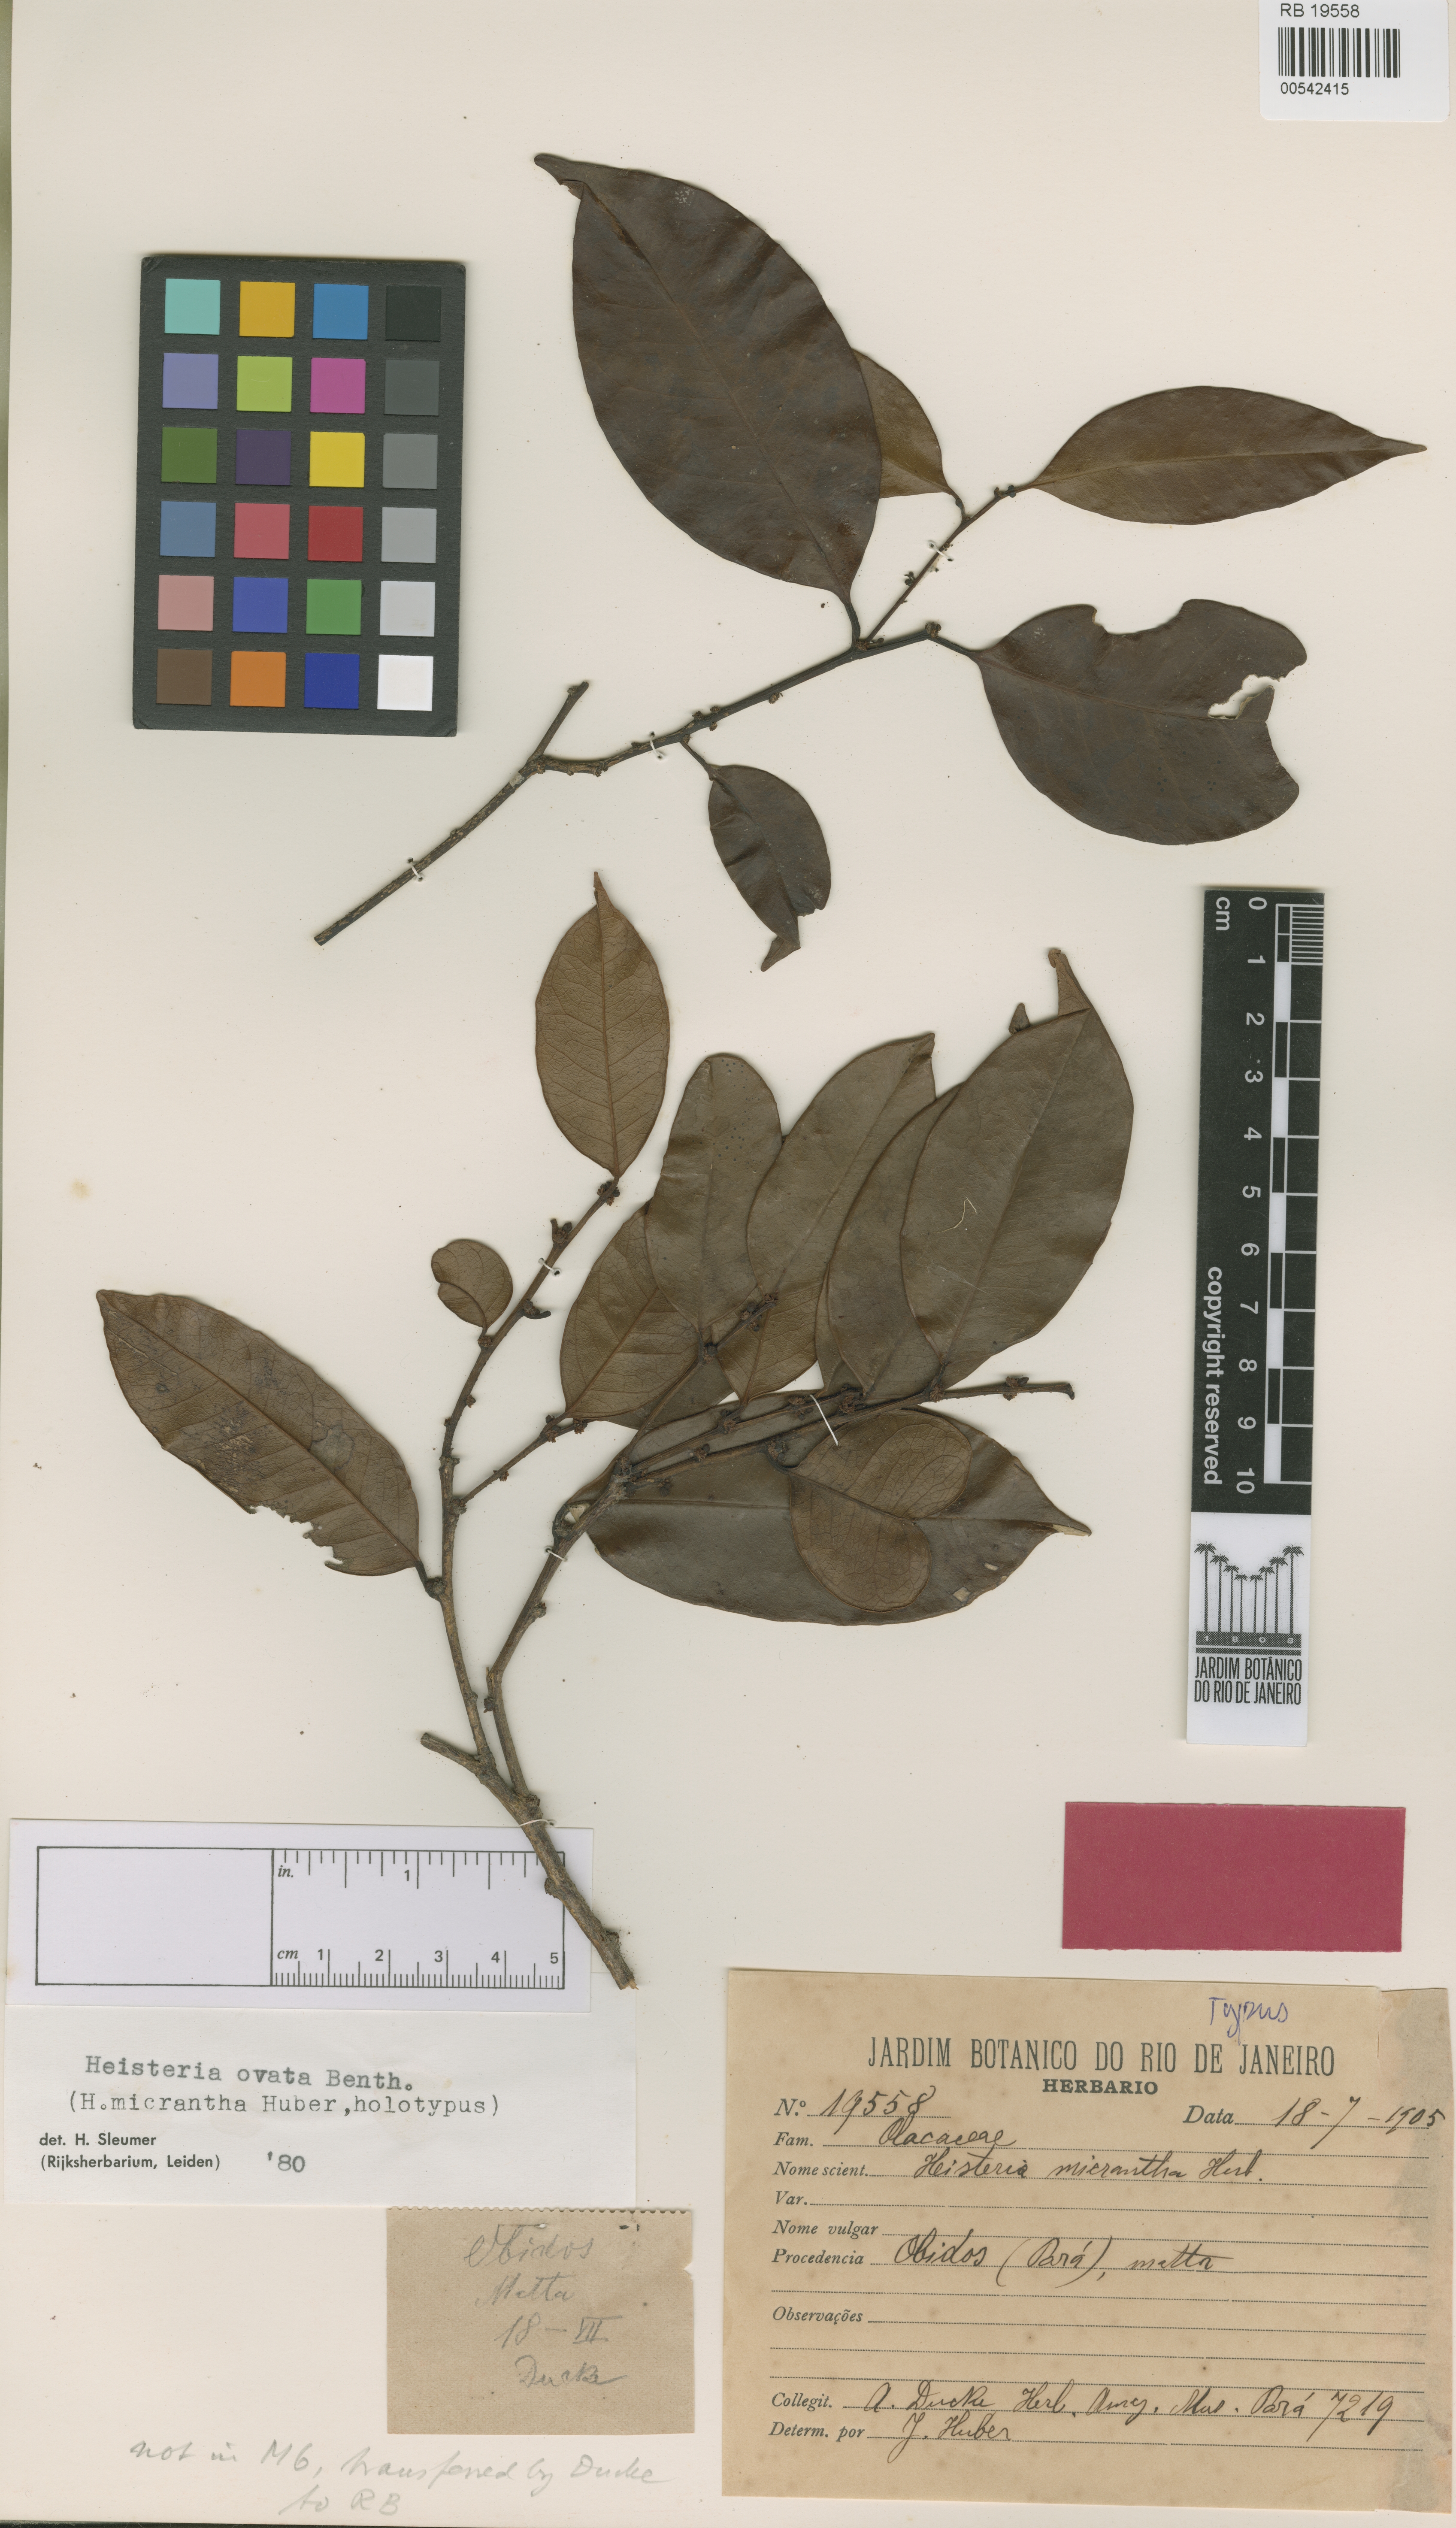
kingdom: Plantae
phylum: Tracheophyta
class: Magnoliopsida
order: Santalales
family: Erythropalaceae
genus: Heisteria
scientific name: Heisteria ovata
